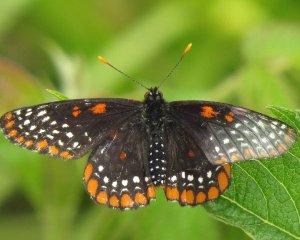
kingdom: Animalia
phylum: Arthropoda
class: Insecta
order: Lepidoptera
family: Nymphalidae
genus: Euphydryas
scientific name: Euphydryas phaeton
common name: Baltimore Checkerspot
